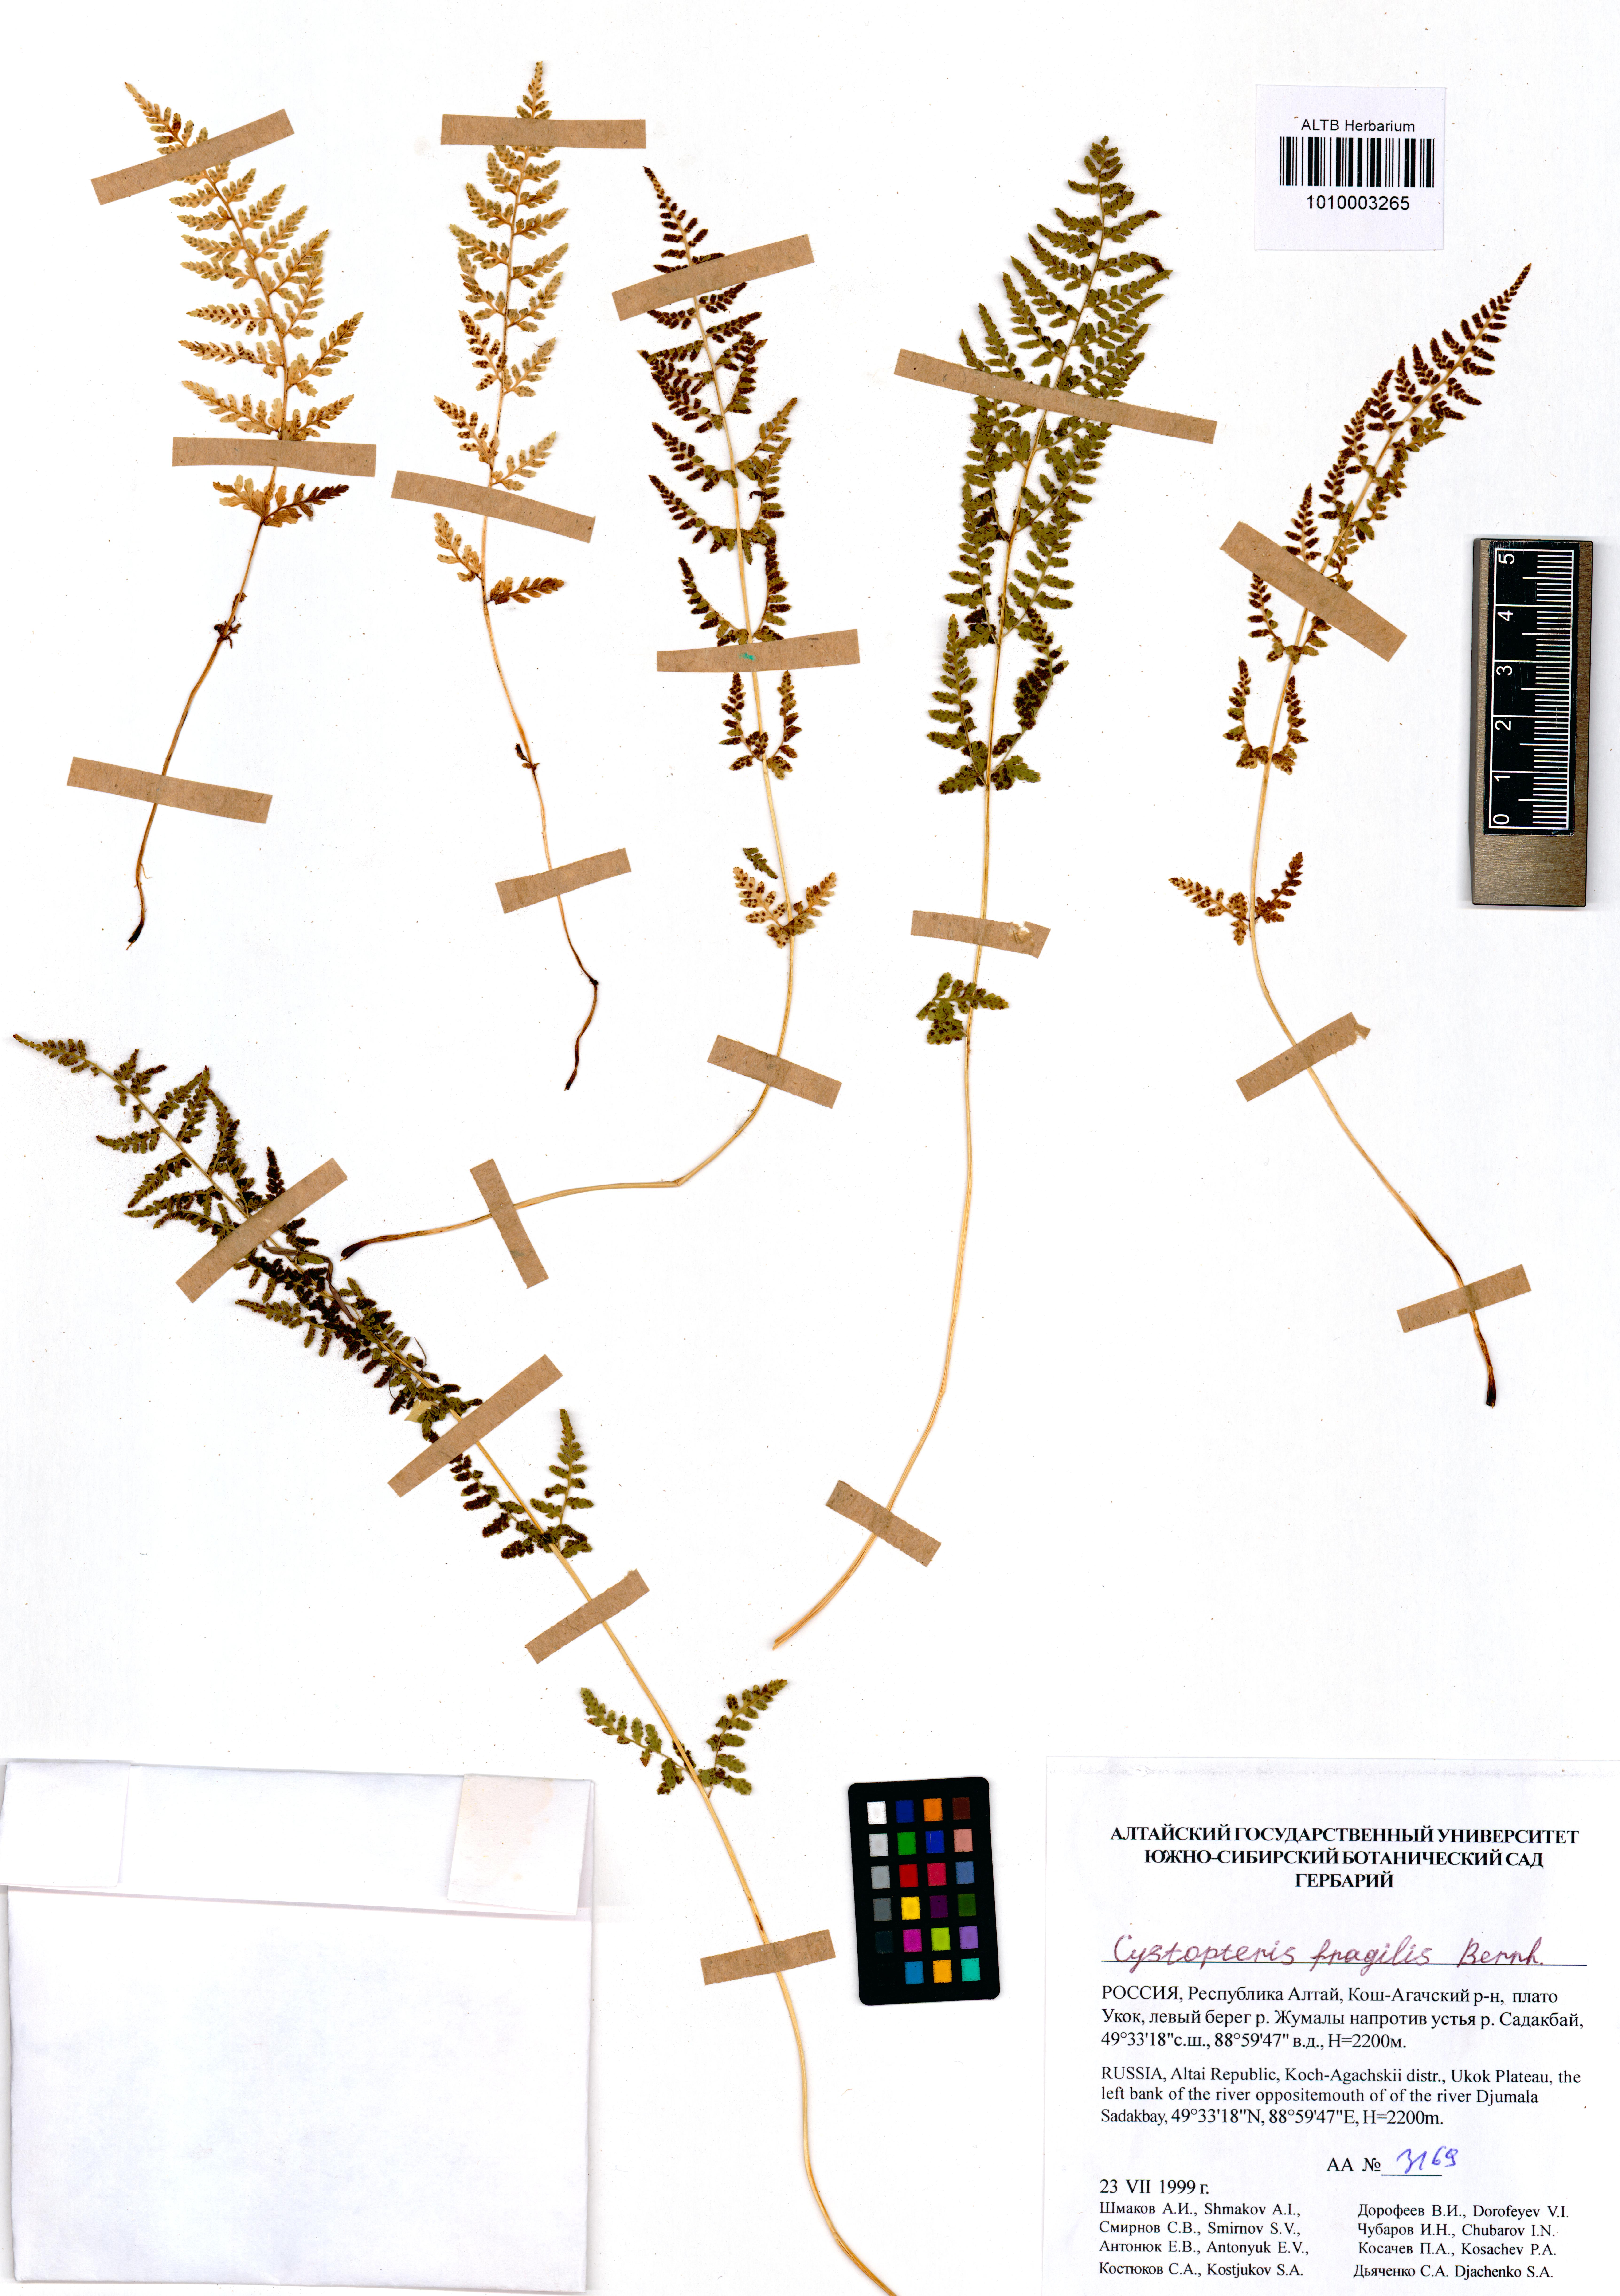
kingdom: Plantae
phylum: Tracheophyta
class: Polypodiopsida
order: Polypodiales
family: Cystopteridaceae
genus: Cystopteris
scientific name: Cystopteris fragilis
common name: Brittle bladder fern
